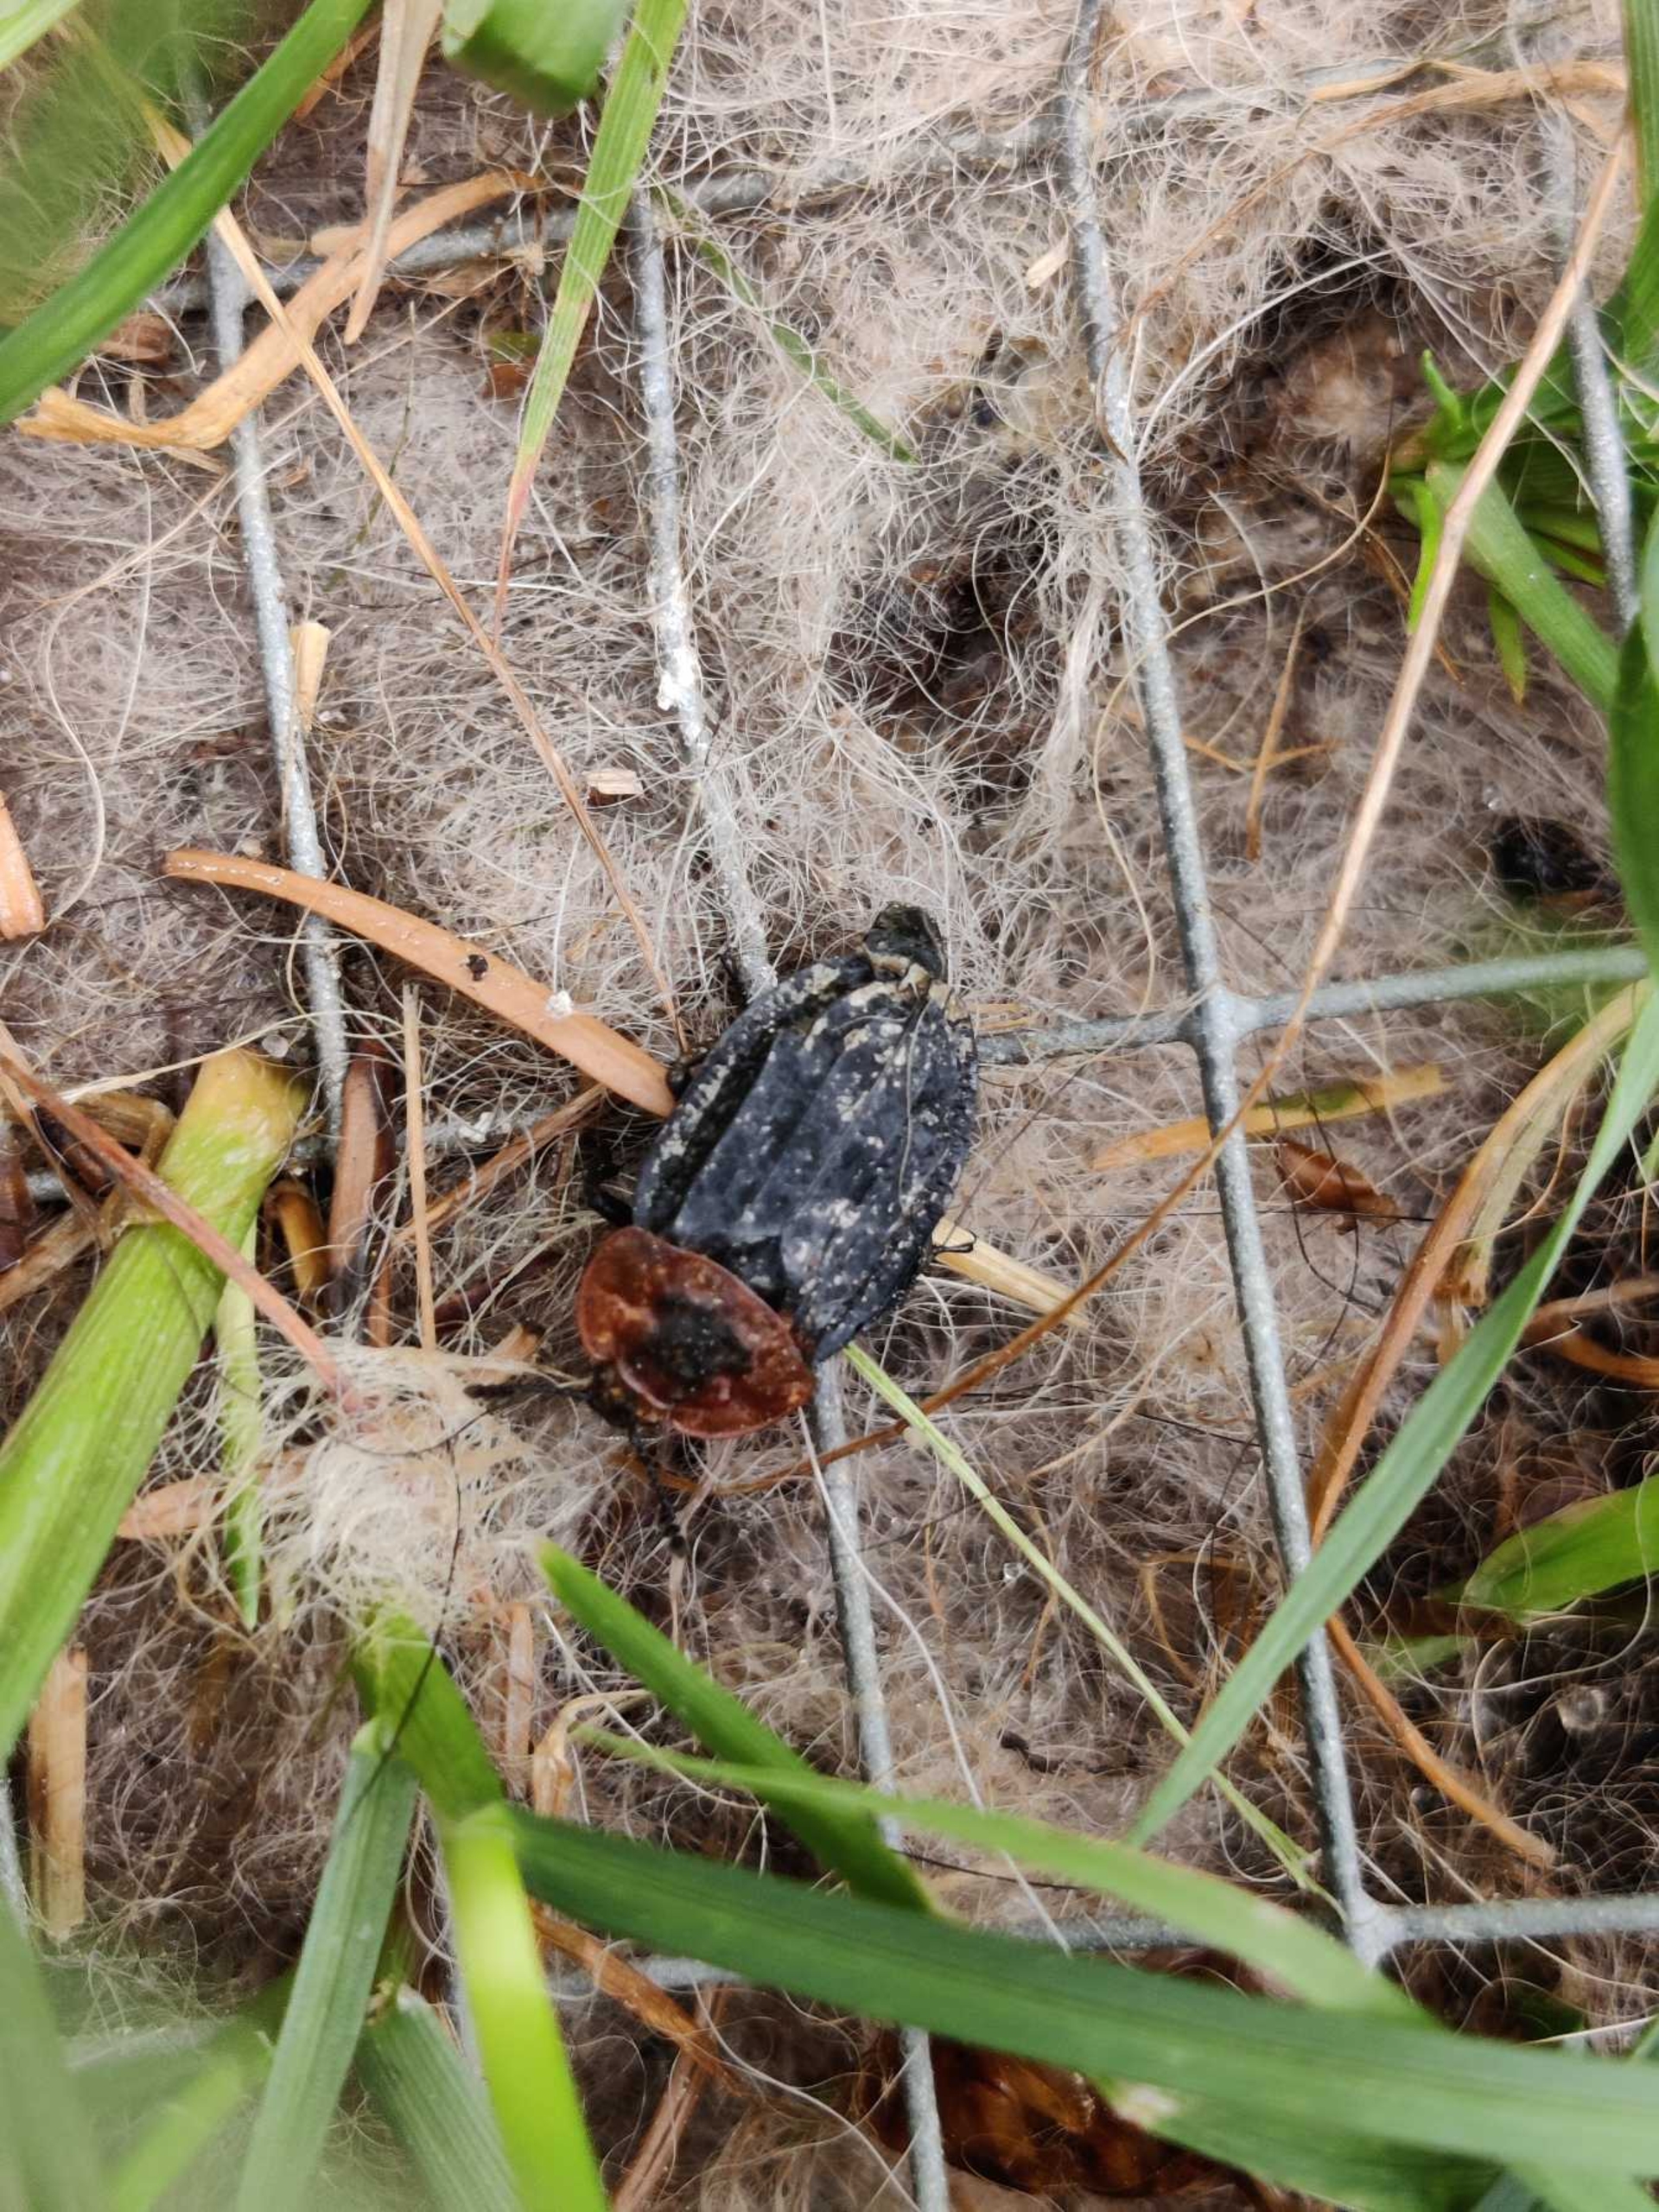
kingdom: Animalia
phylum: Arthropoda
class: Insecta
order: Coleoptera
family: Staphylinidae
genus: Oiceoptoma
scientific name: Oiceoptoma thoracicum
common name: Rødbrystet ådselbille
